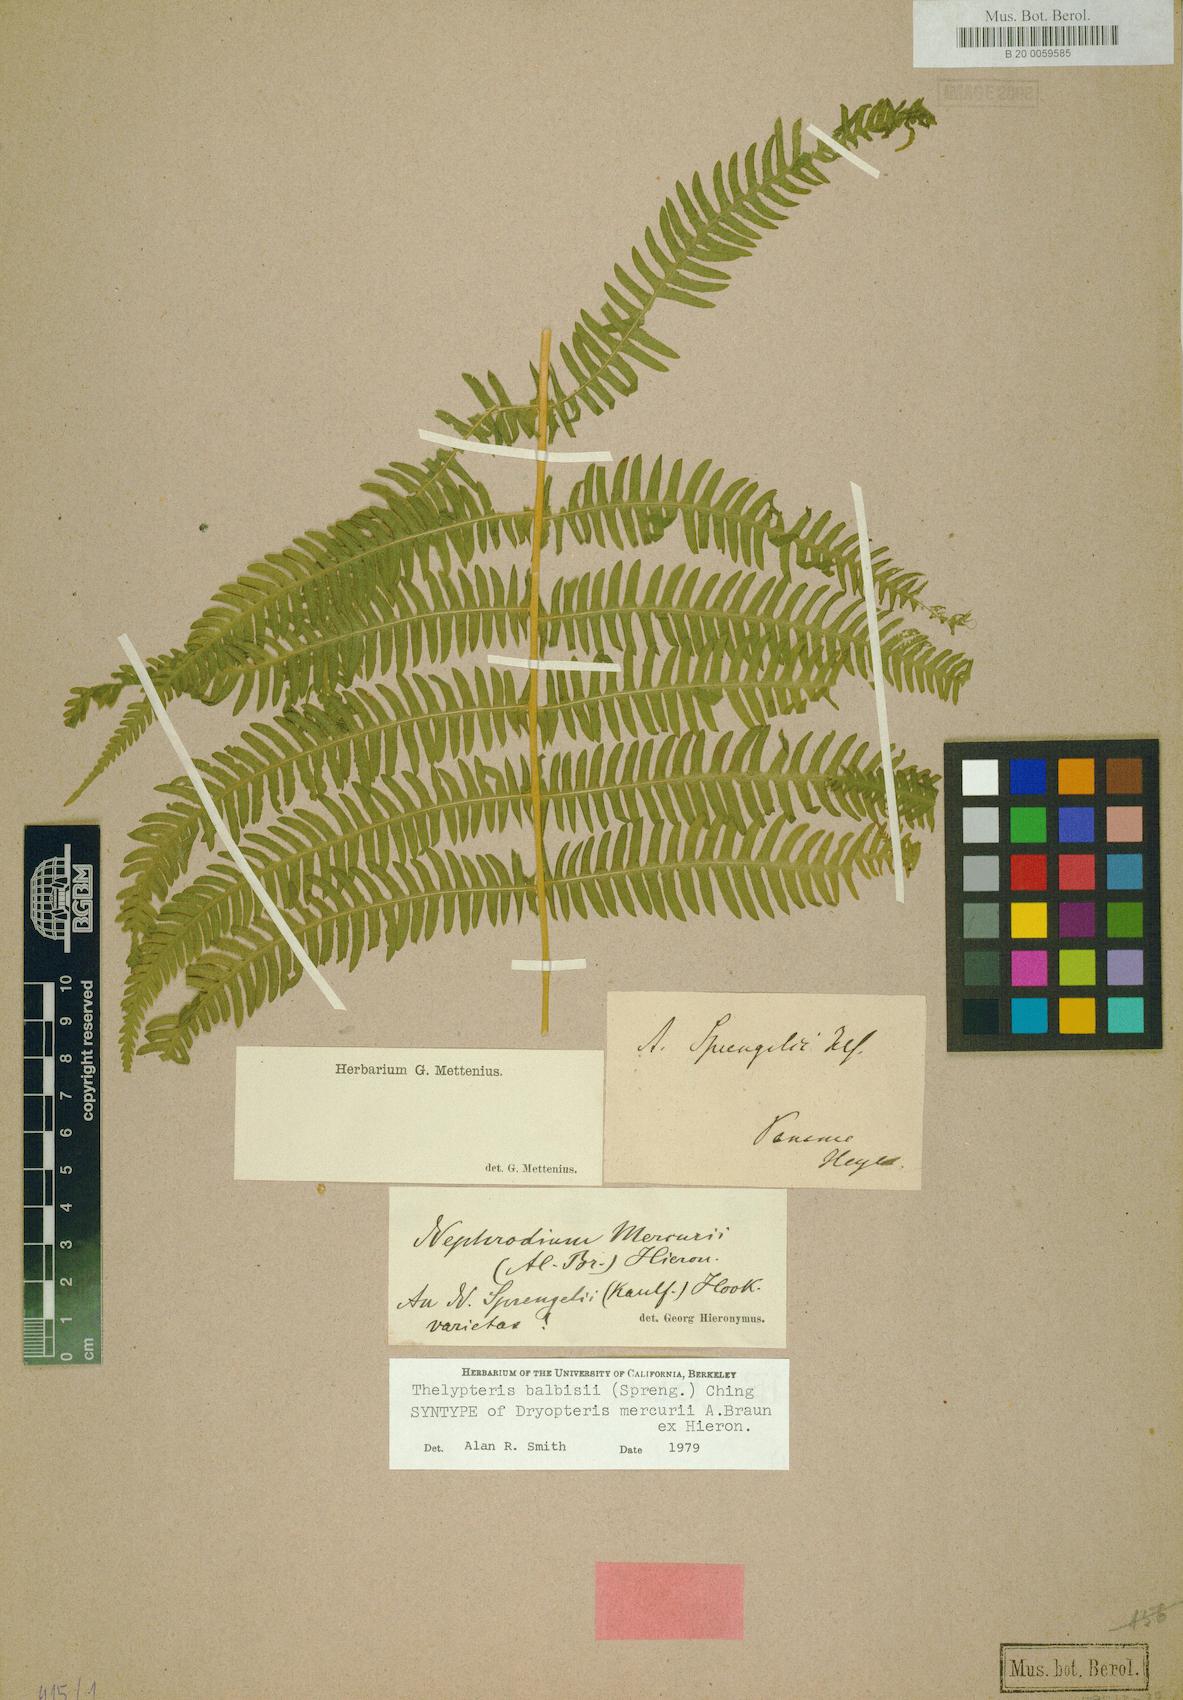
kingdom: Plantae
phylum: Tracheophyta
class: Polypodiopsida
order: Polypodiales
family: Thelypteridaceae
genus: Amauropelta
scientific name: Amauropelta balbisii
